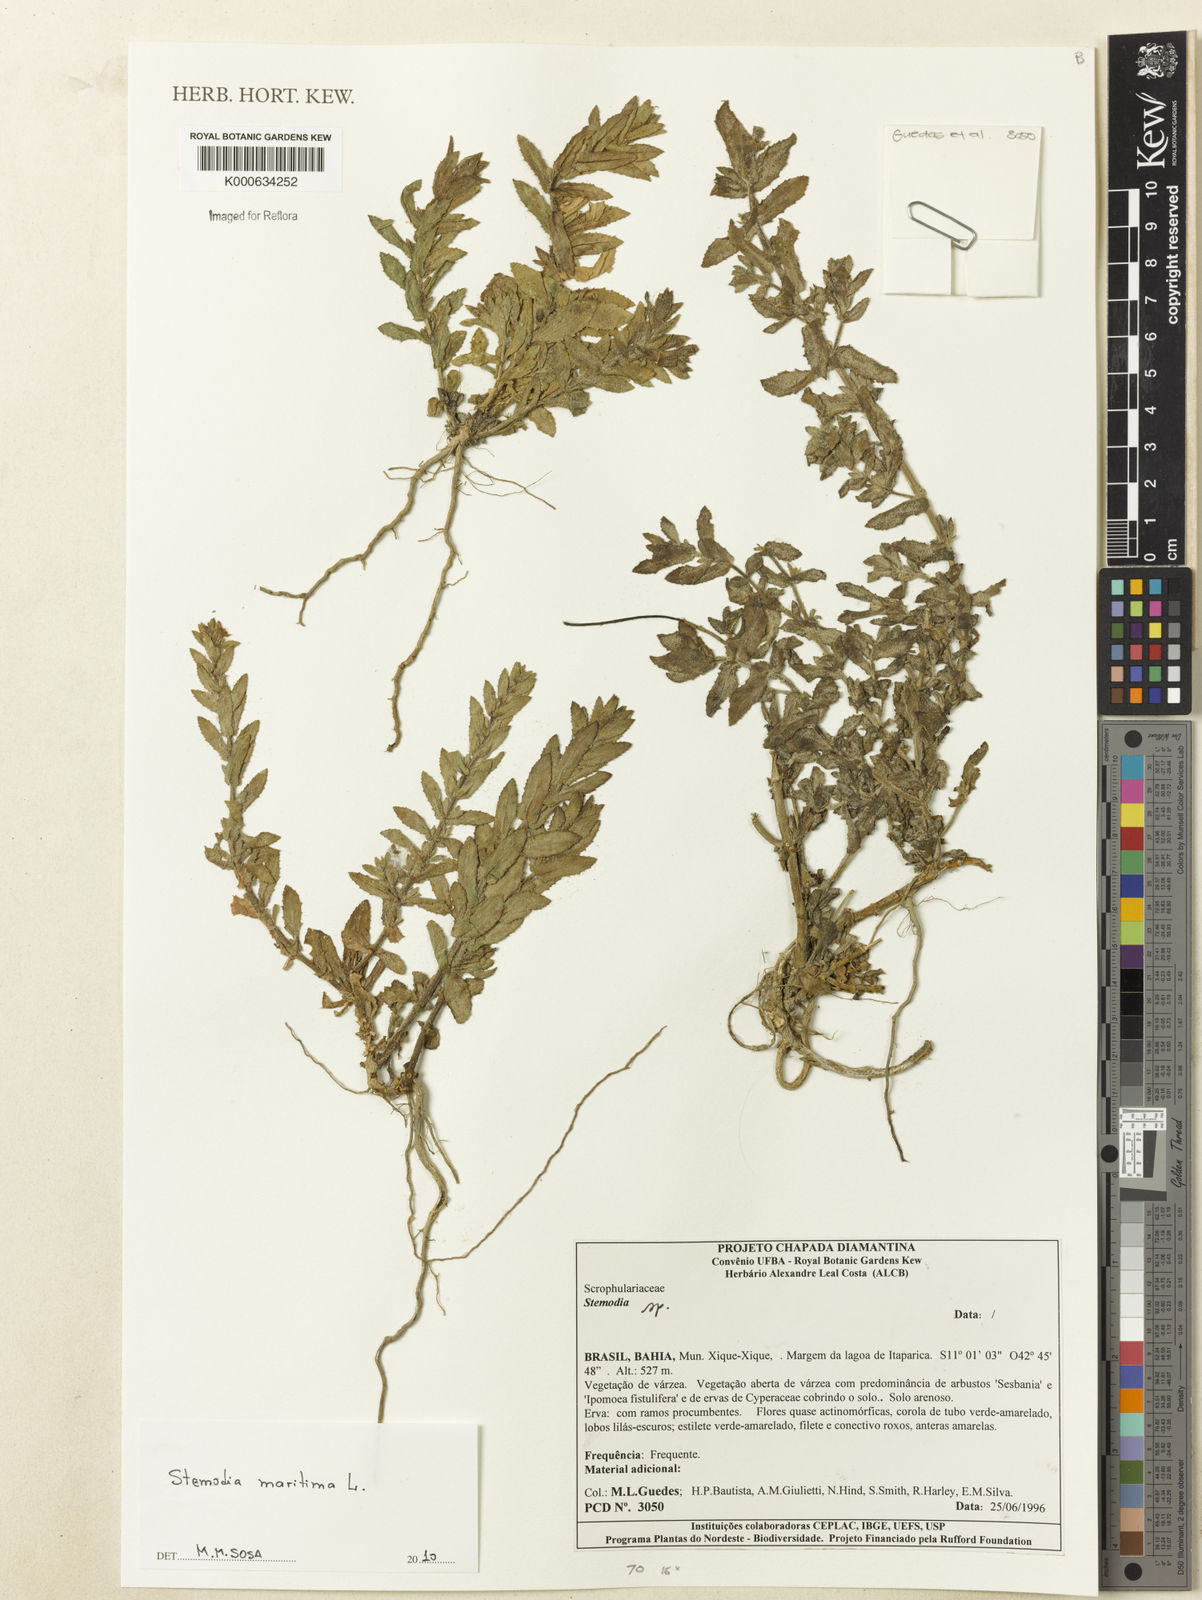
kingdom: Plantae
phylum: Tracheophyta
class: Magnoliopsida
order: Lamiales
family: Plantaginaceae
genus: Stemodia
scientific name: Stemodia maritima
